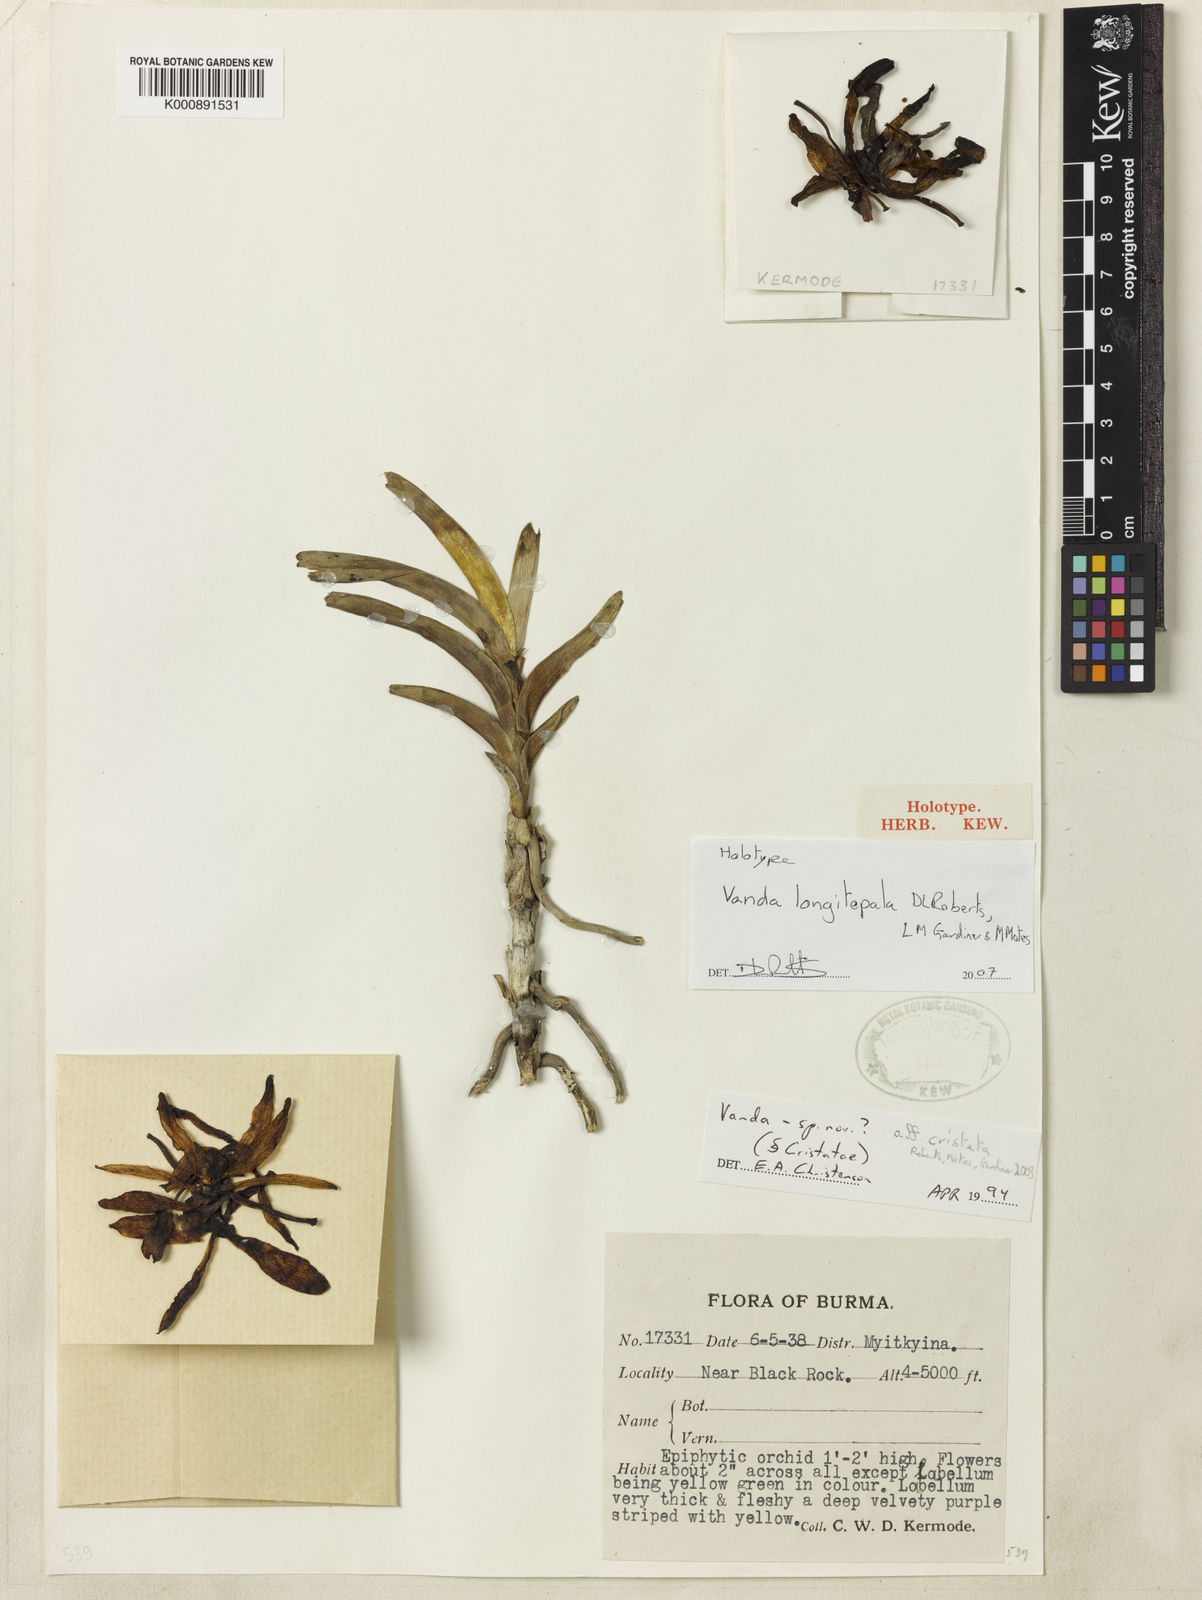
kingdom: Plantae
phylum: Tracheophyta
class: Liliopsida
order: Asparagales
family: Orchidaceae
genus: Vanda
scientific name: Vanda
